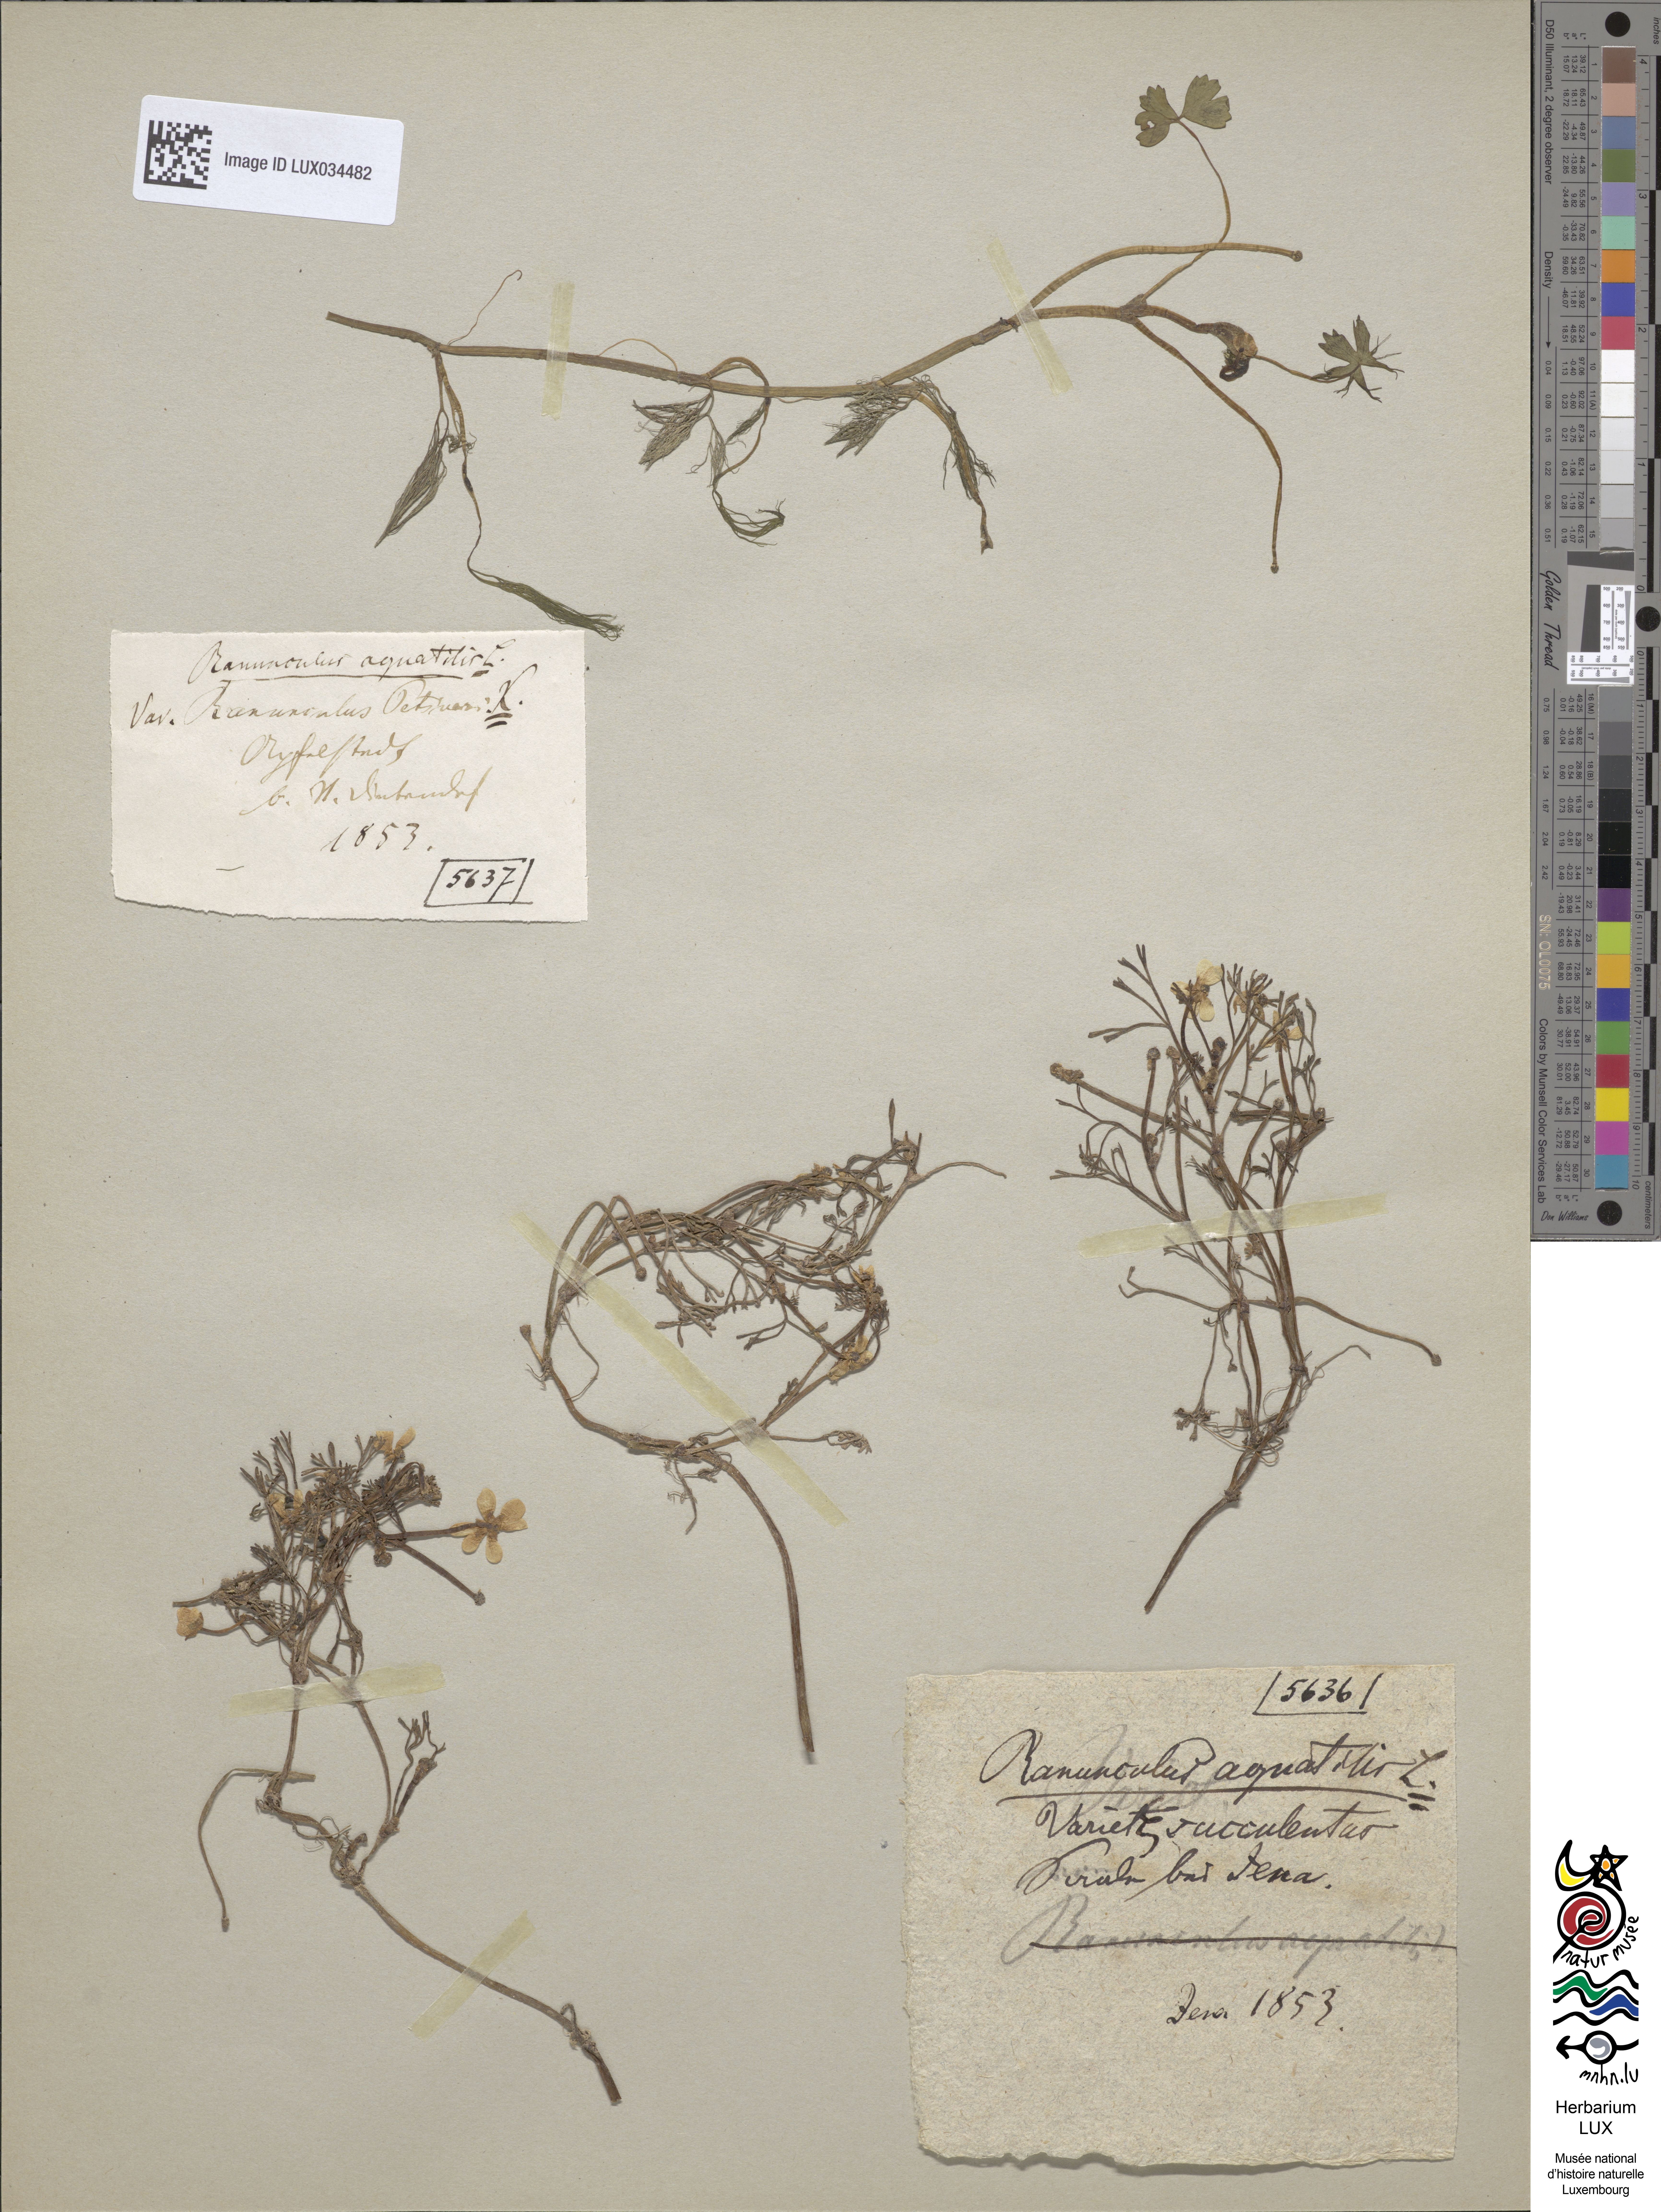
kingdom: Plantae
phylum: Tracheophyta
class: Magnoliopsida
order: Ranunculales
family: Ranunculaceae
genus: Ranunculus
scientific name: Ranunculus tripartitus
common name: Three-lobed crowfoot
